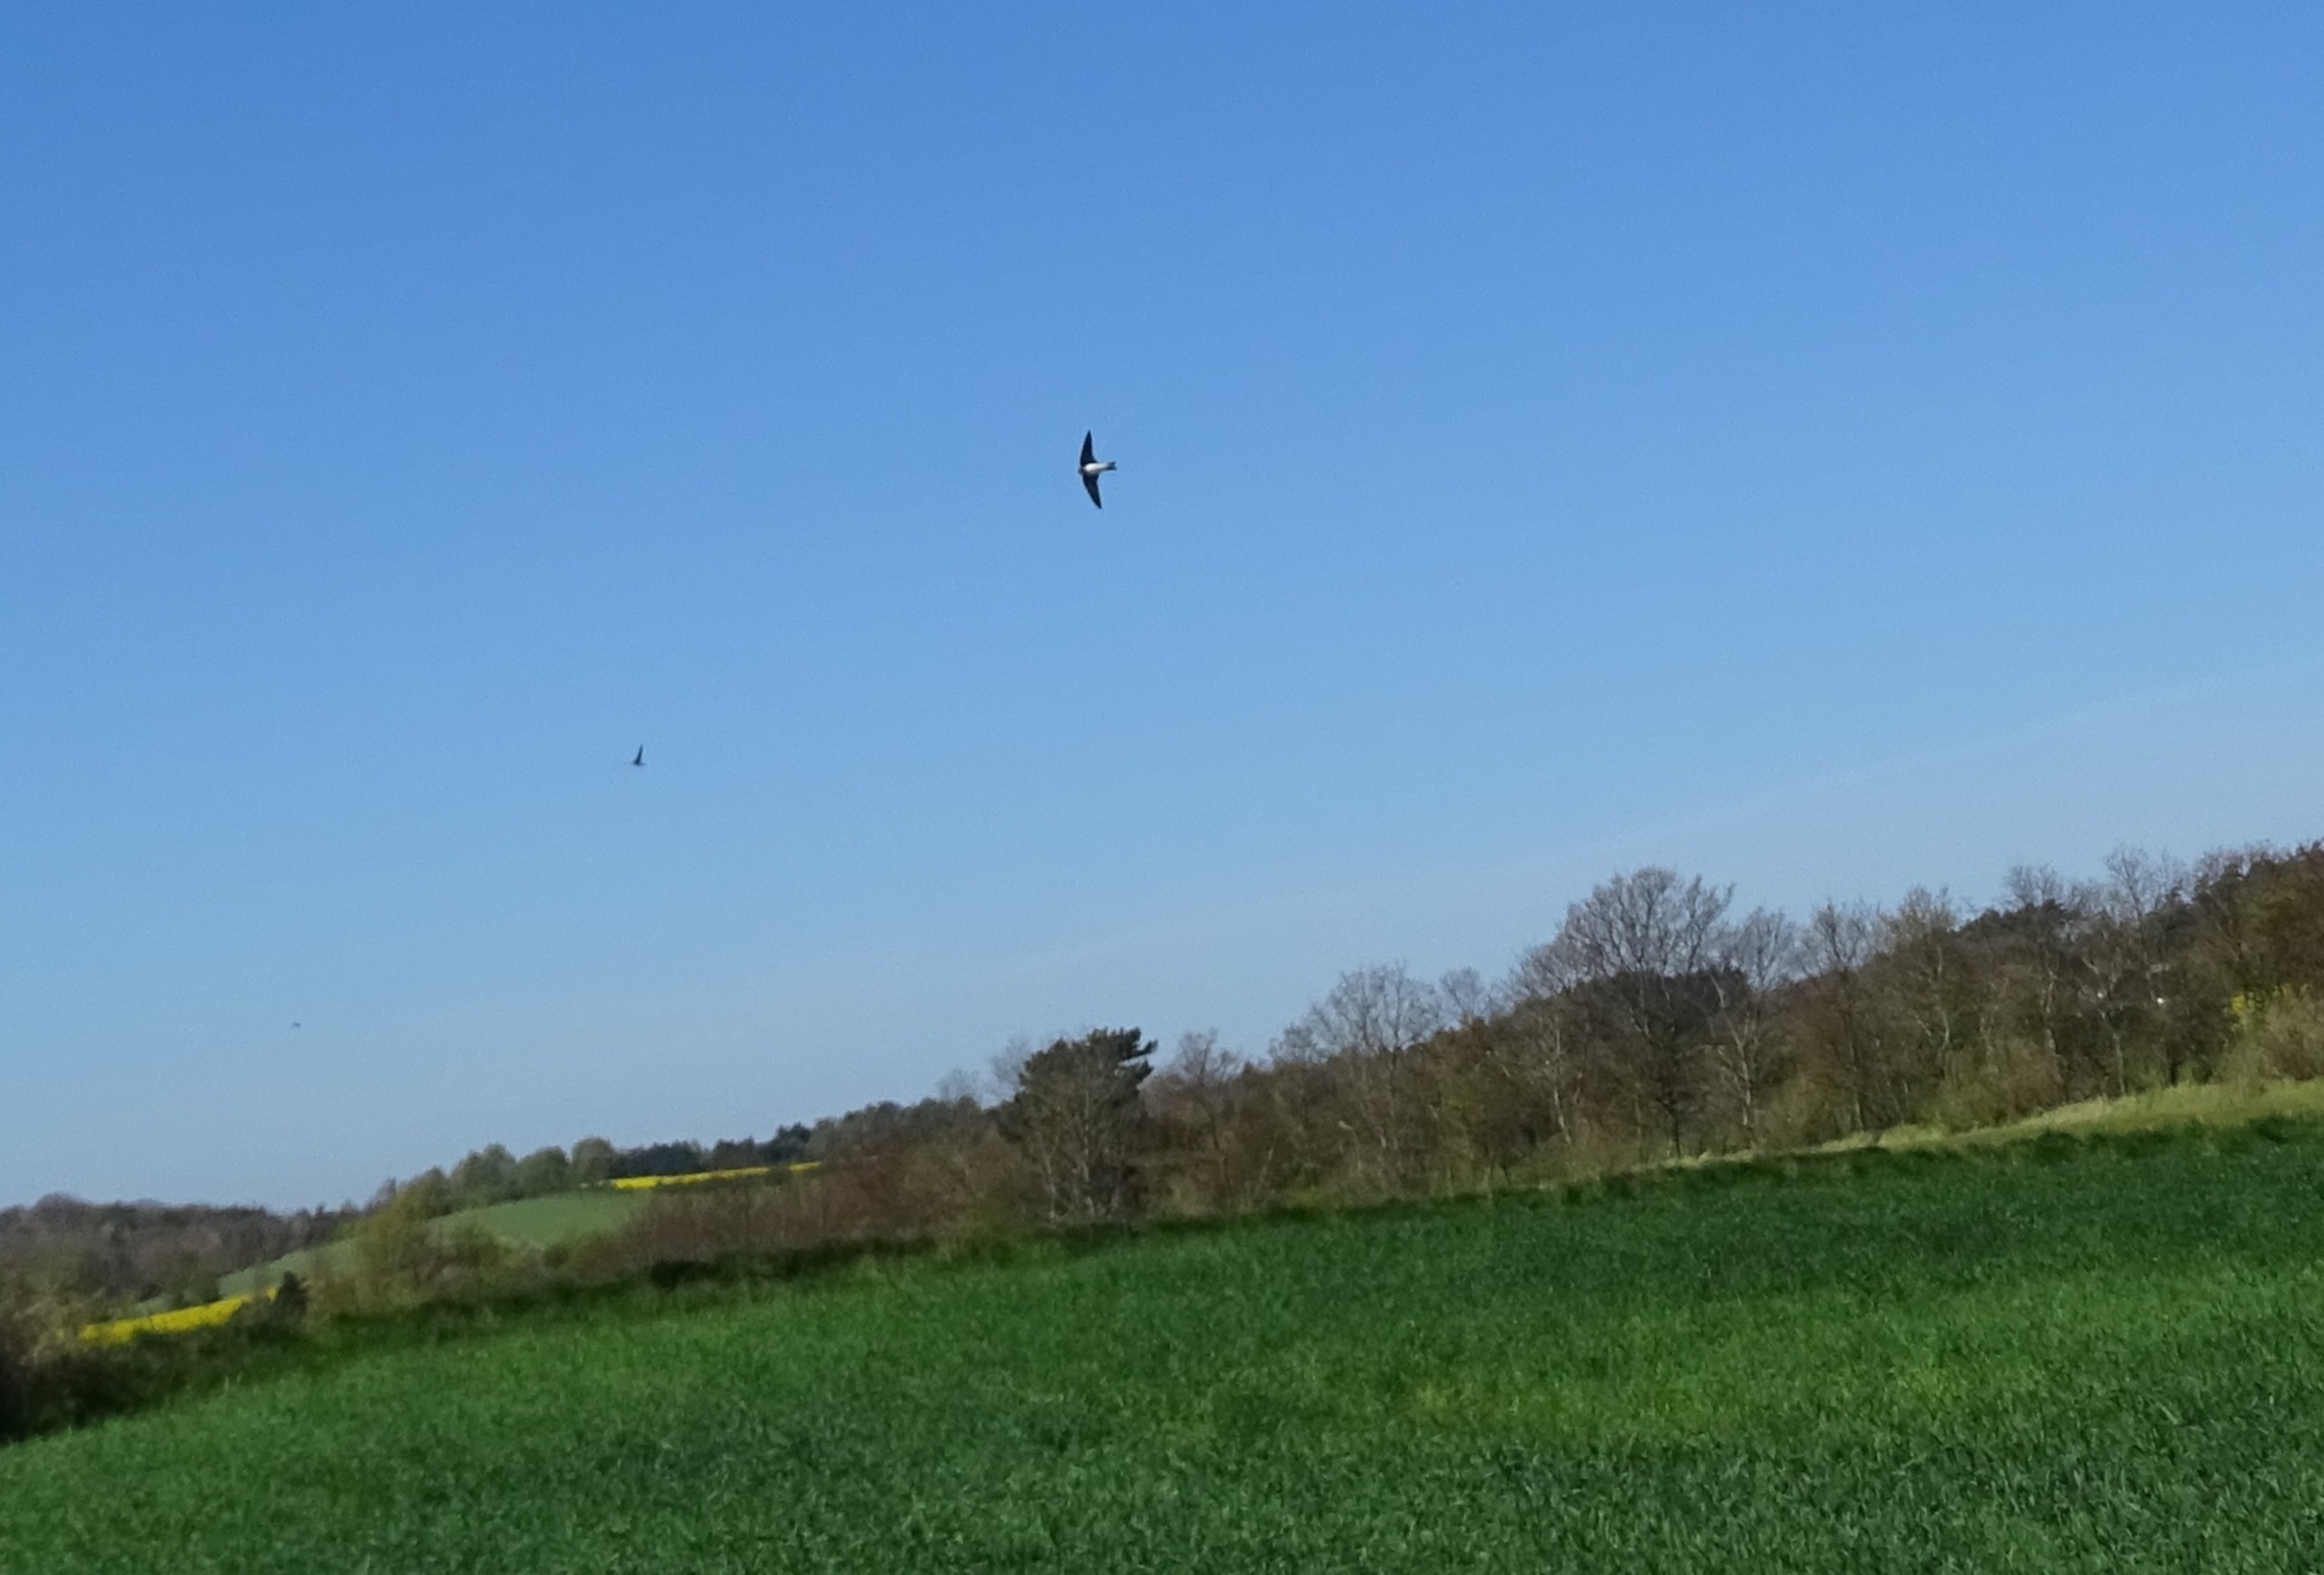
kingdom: Animalia
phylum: Chordata
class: Aves
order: Passeriformes
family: Hirundinidae
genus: Riparia
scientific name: Riparia riparia
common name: Digesvale
